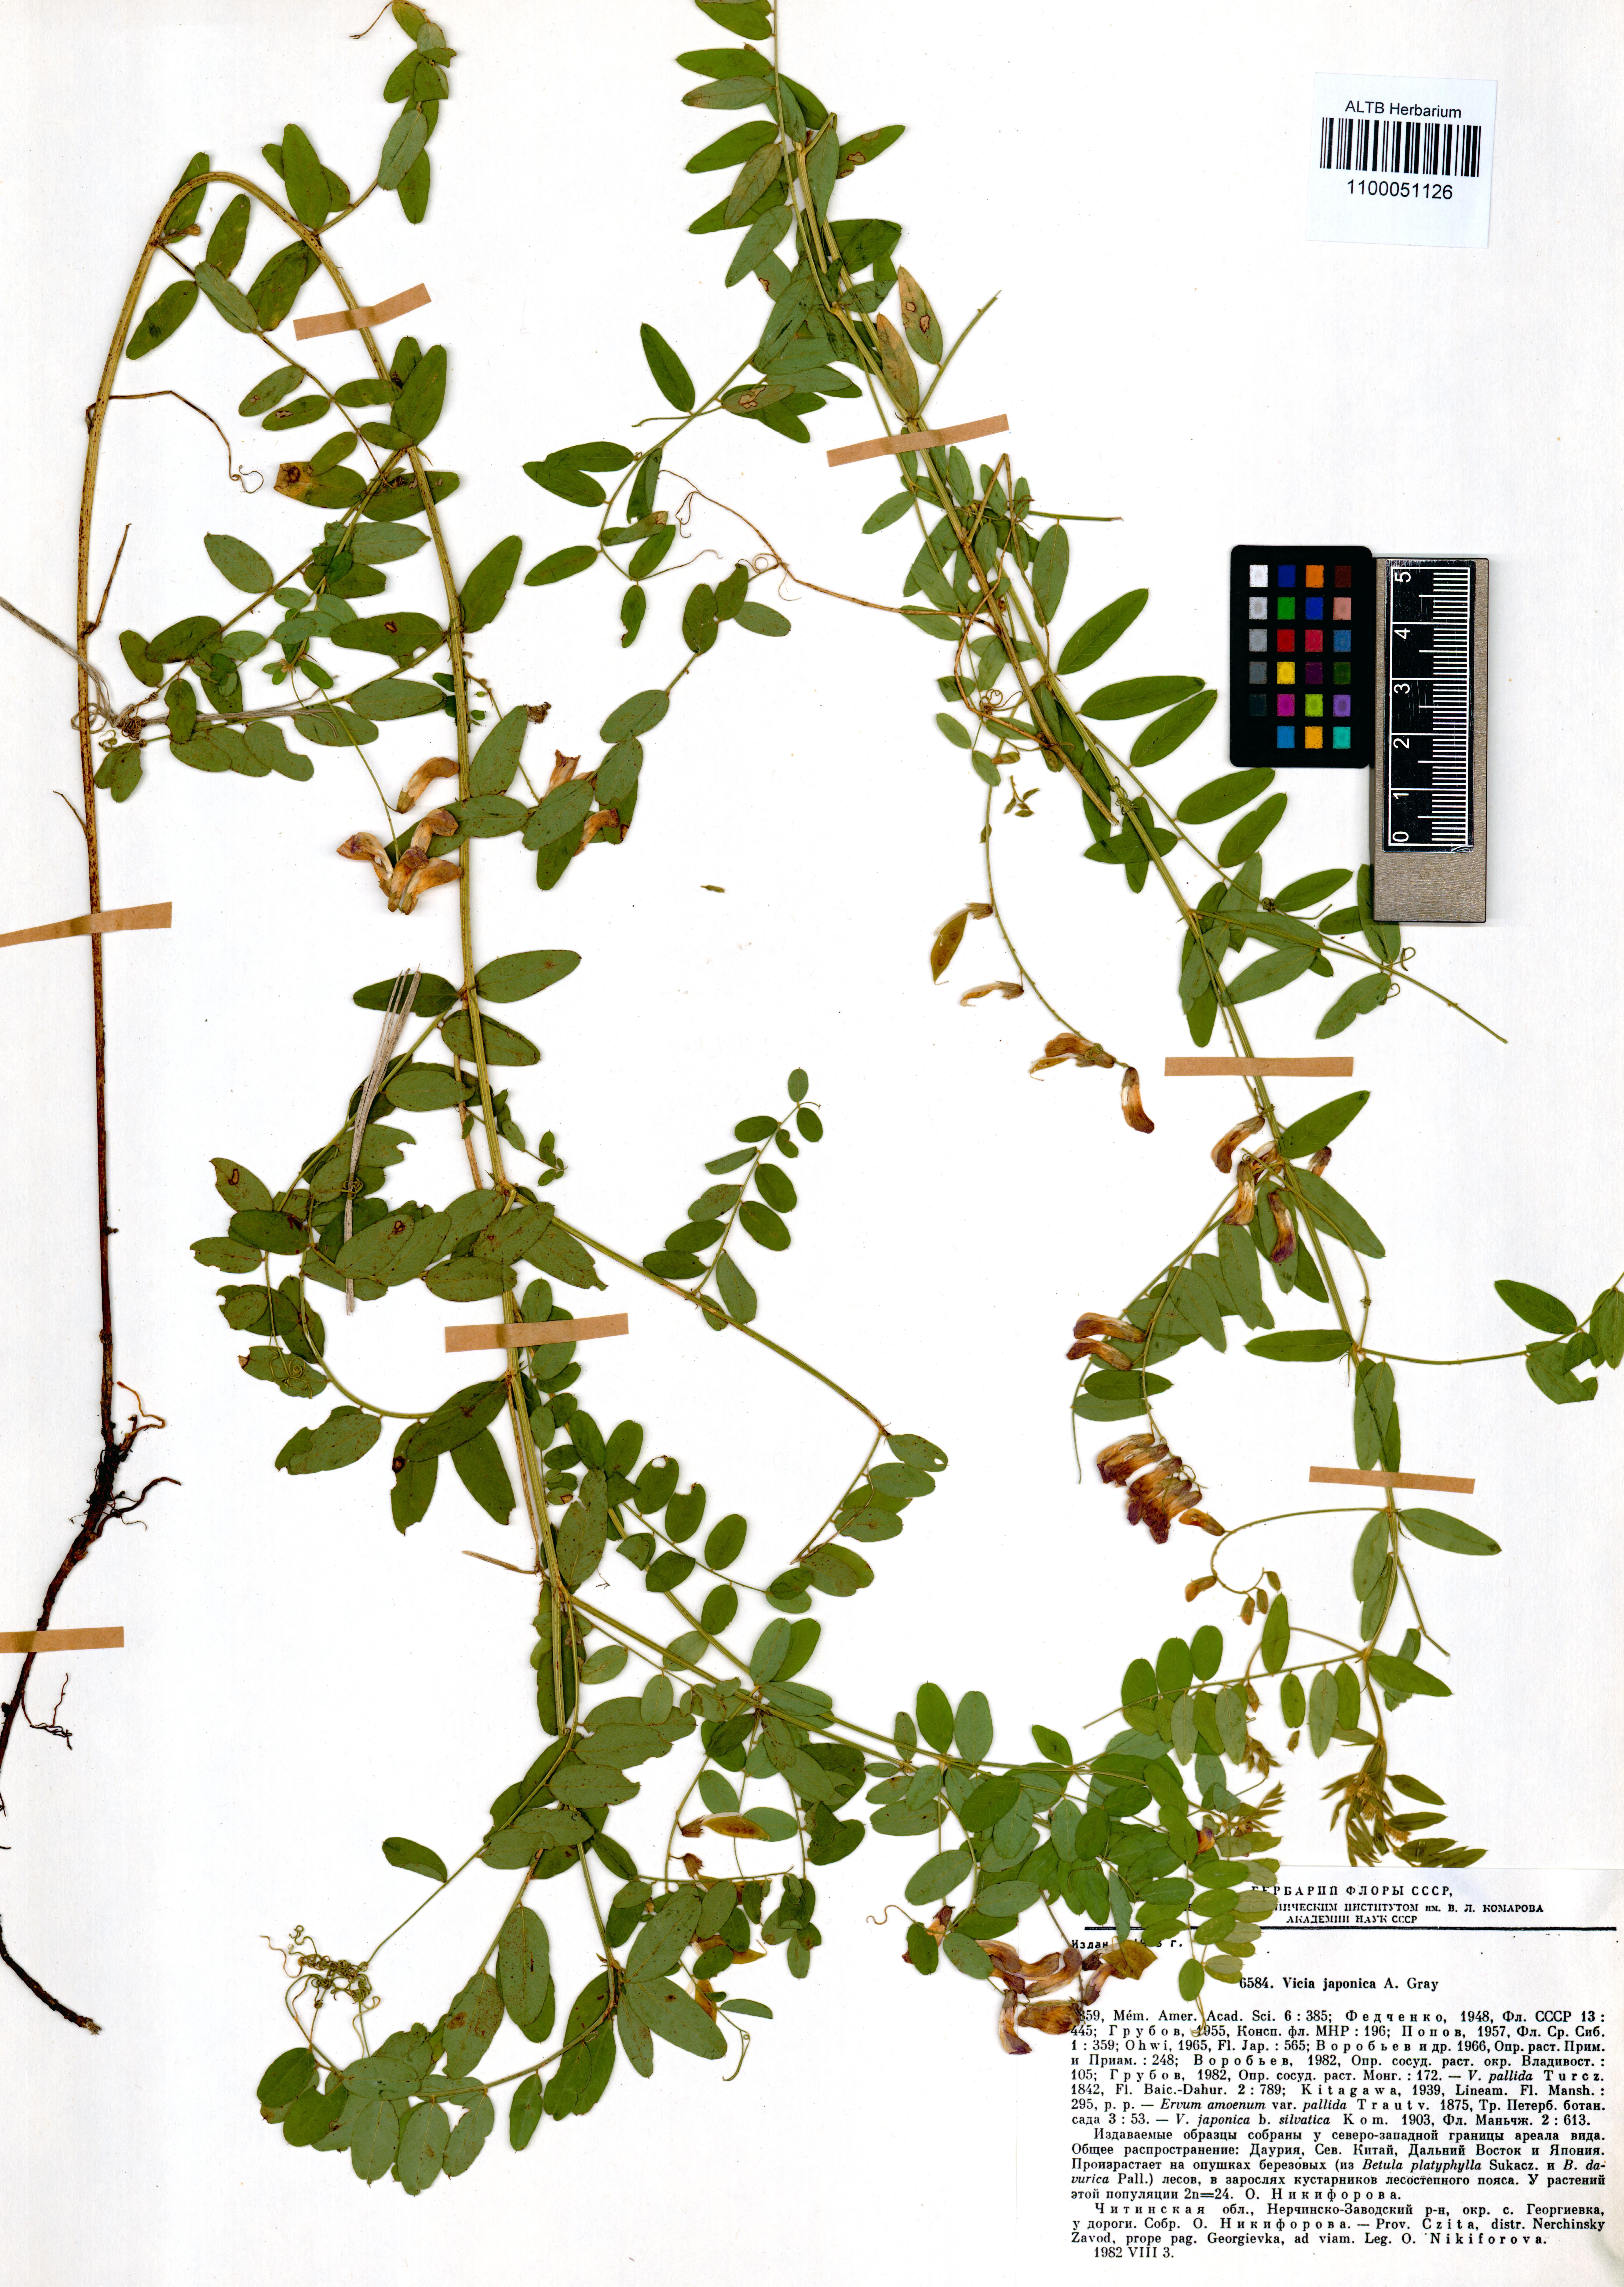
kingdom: Plantae
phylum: Tracheophyta
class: Magnoliopsida
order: Fabales
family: Fabaceae
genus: Vicia
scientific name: Vicia japonica
